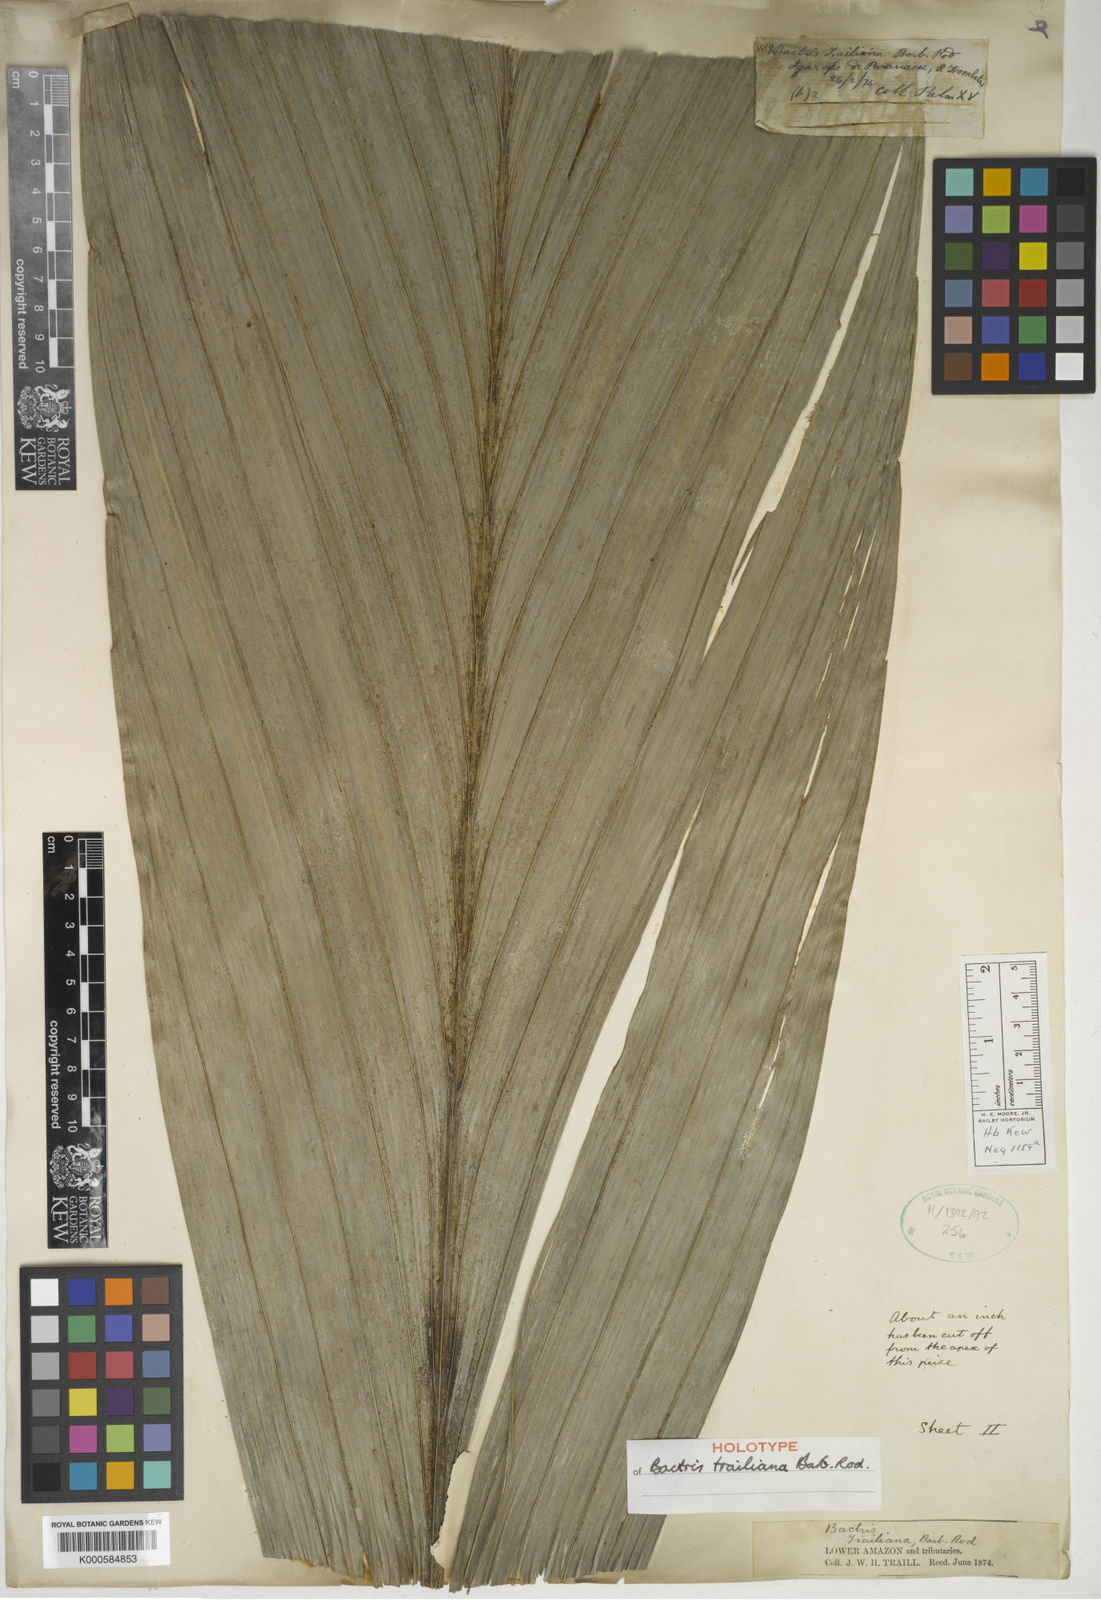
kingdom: Plantae
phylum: Tracheophyta
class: Liliopsida
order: Arecales
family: Arecaceae
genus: Bactris
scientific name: Bactris acanthocarpa
